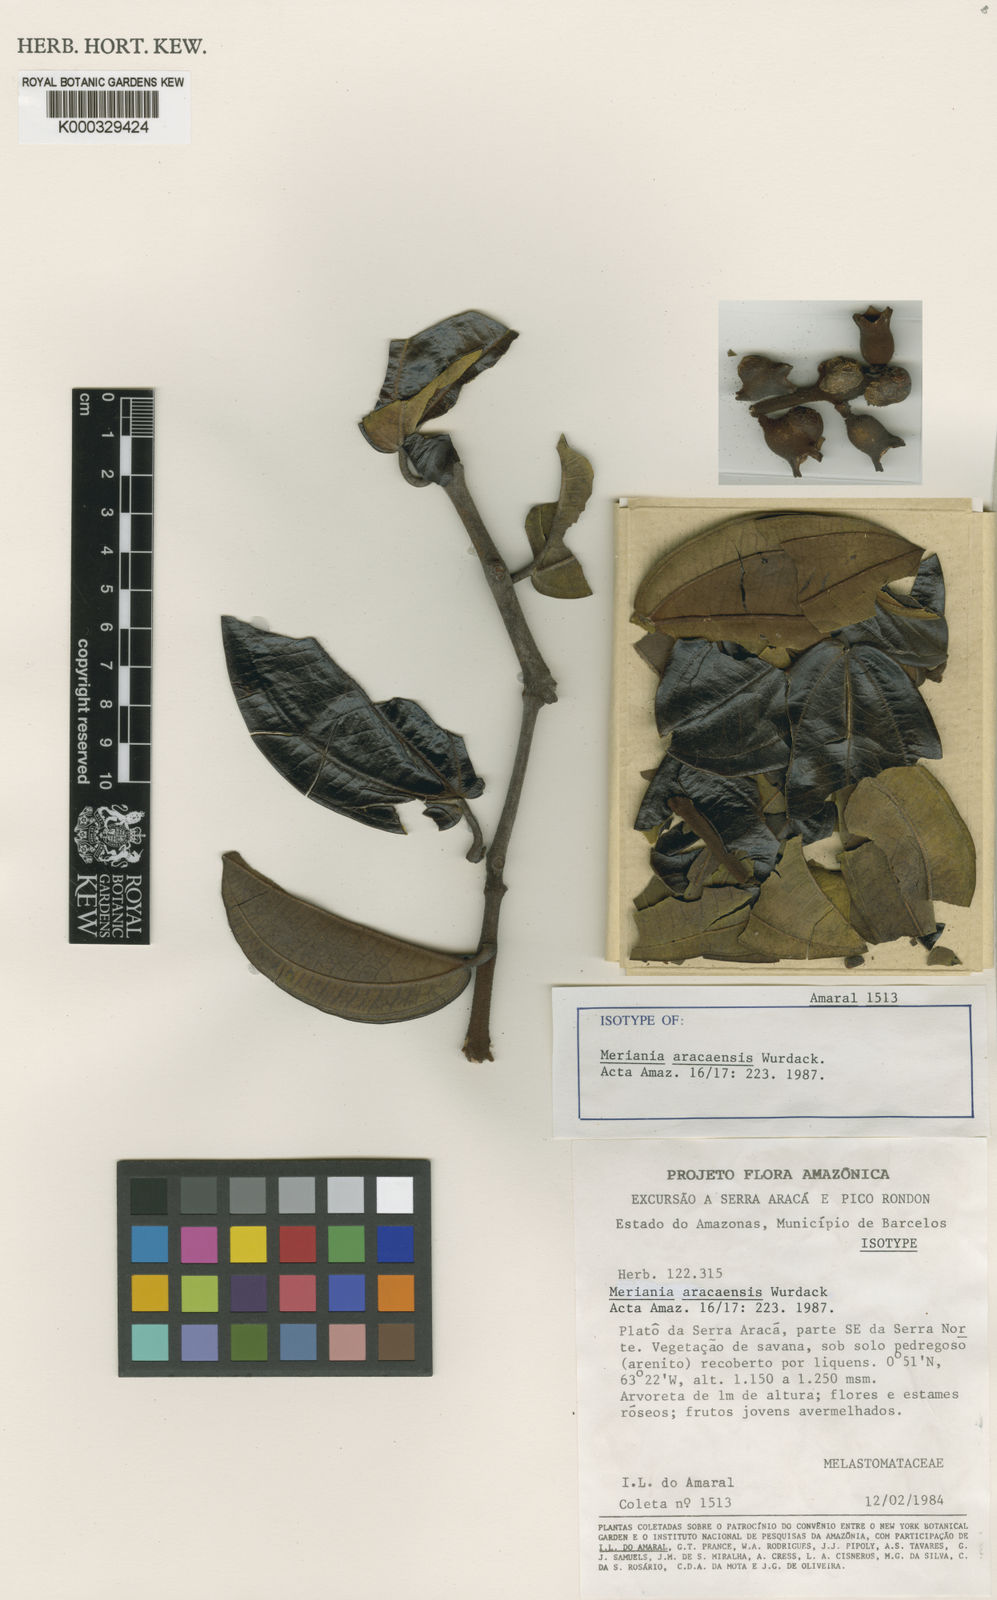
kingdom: Plantae
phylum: Tracheophyta
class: Magnoliopsida
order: Myrtales
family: Melastomataceae
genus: Meriania
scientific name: Meriania aracaensis
